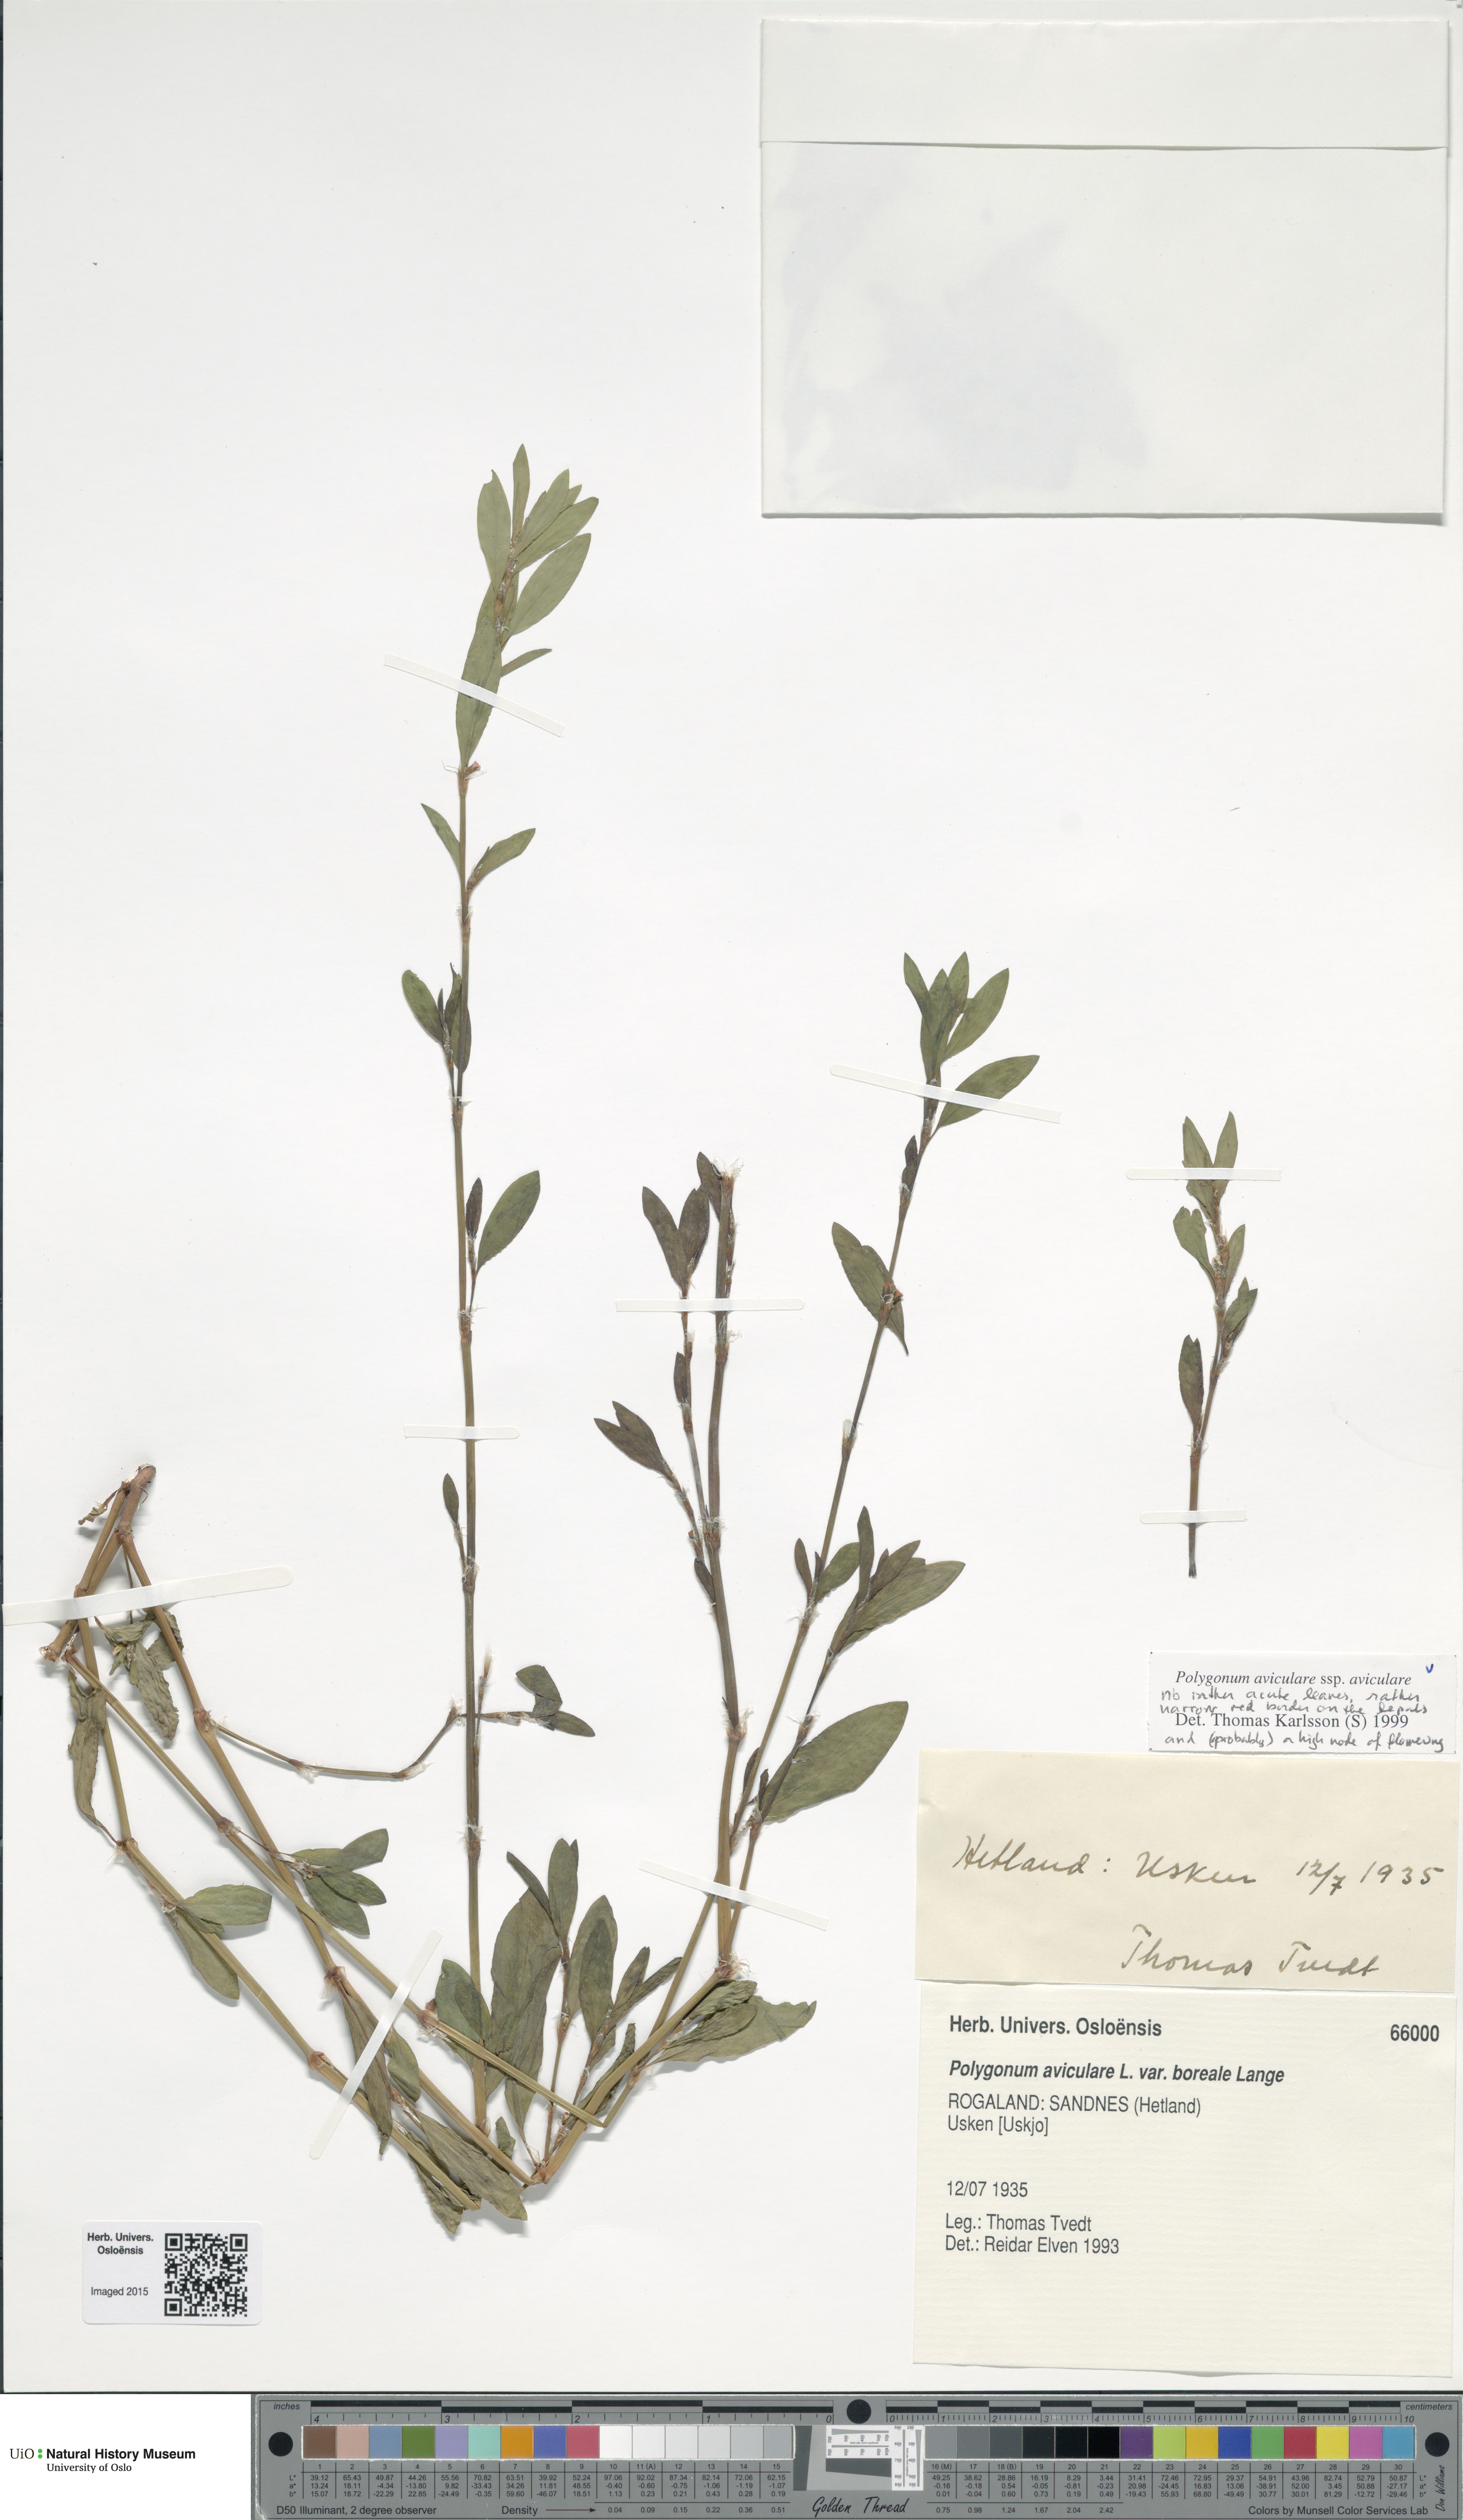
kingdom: Plantae
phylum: Tracheophyta
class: Magnoliopsida
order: Caryophyllales
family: Polygonaceae
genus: Polygonum
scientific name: Polygonum aviculare
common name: Prostrate knotweed
